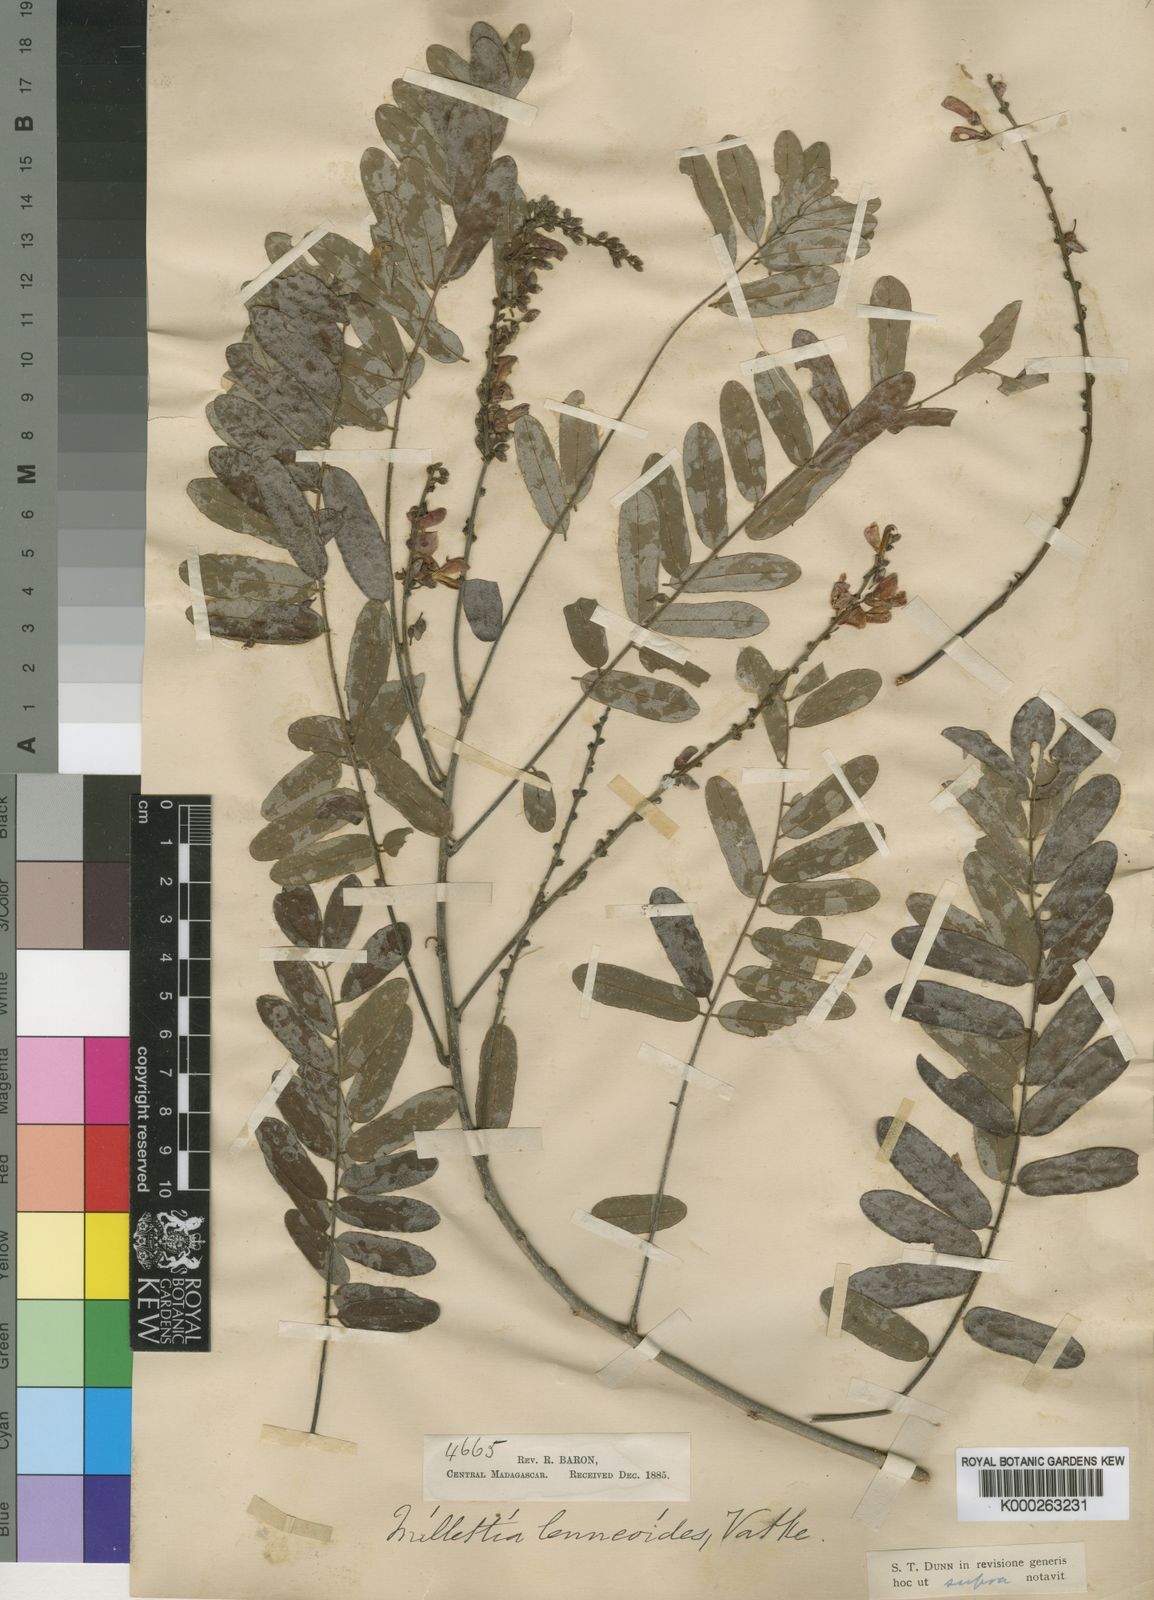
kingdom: Plantae
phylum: Tracheophyta
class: Magnoliopsida
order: Fabales
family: Fabaceae
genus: Millettia
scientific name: Millettia lenneoides
